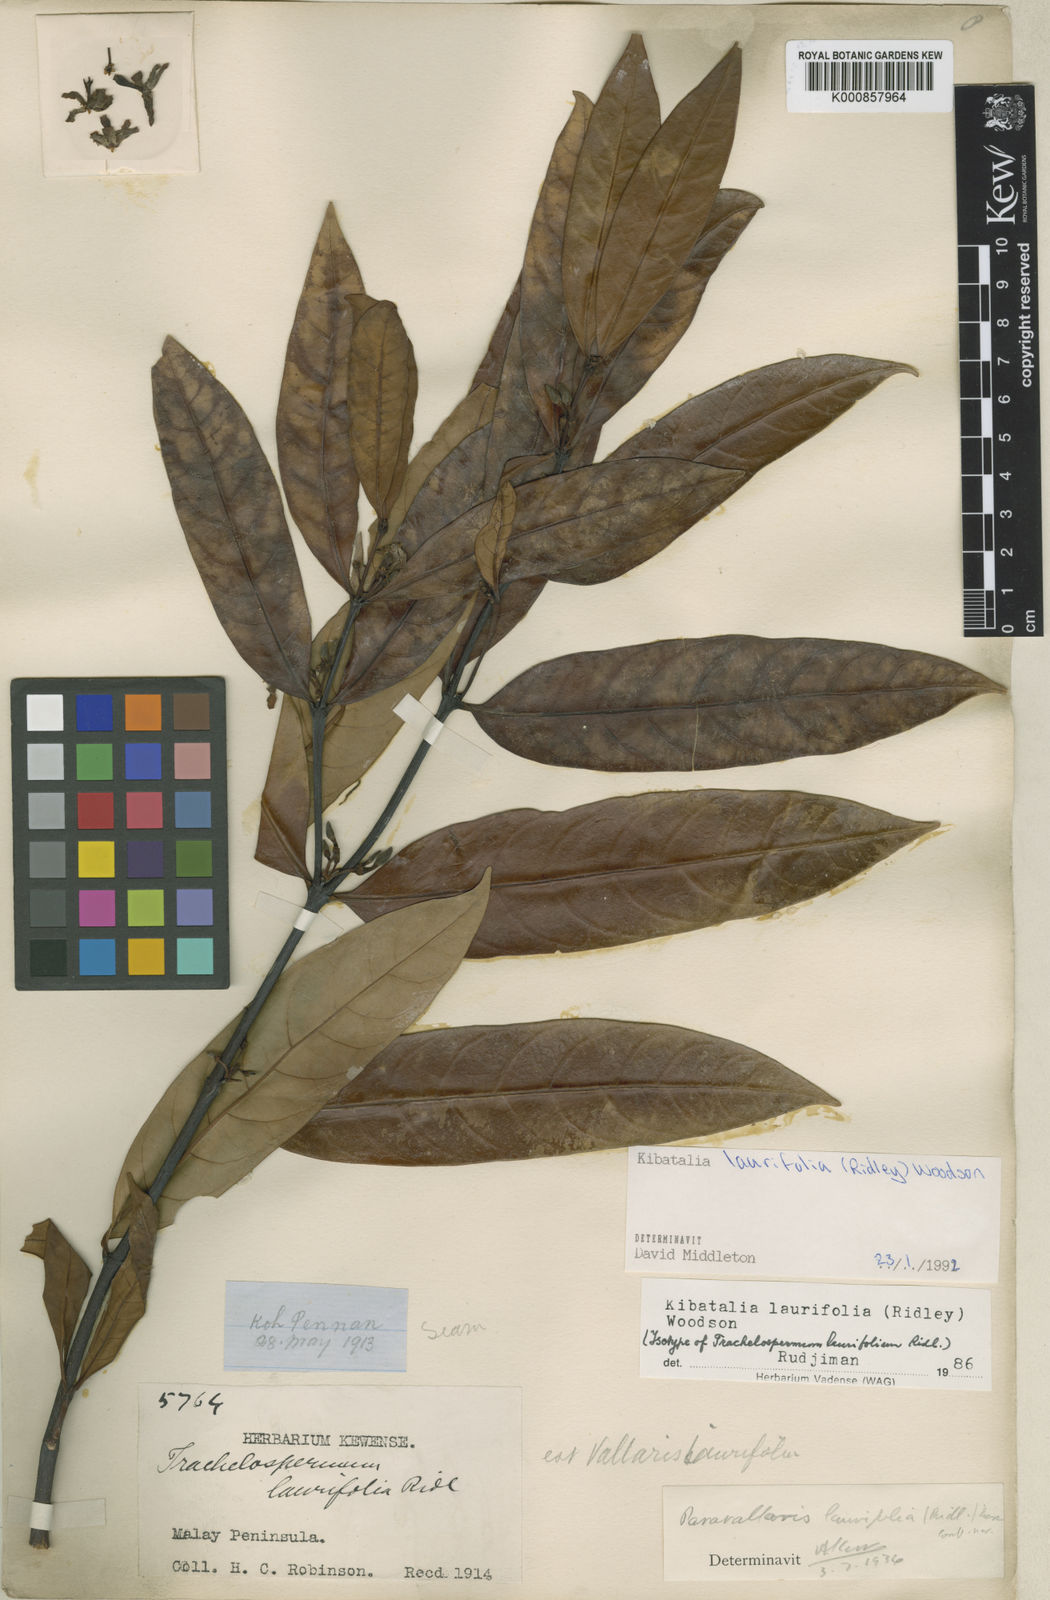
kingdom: Plantae
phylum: Tracheophyta
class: Magnoliopsida
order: Gentianales
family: Apocynaceae
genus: Kibatalia
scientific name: Kibatalia laurifolia
